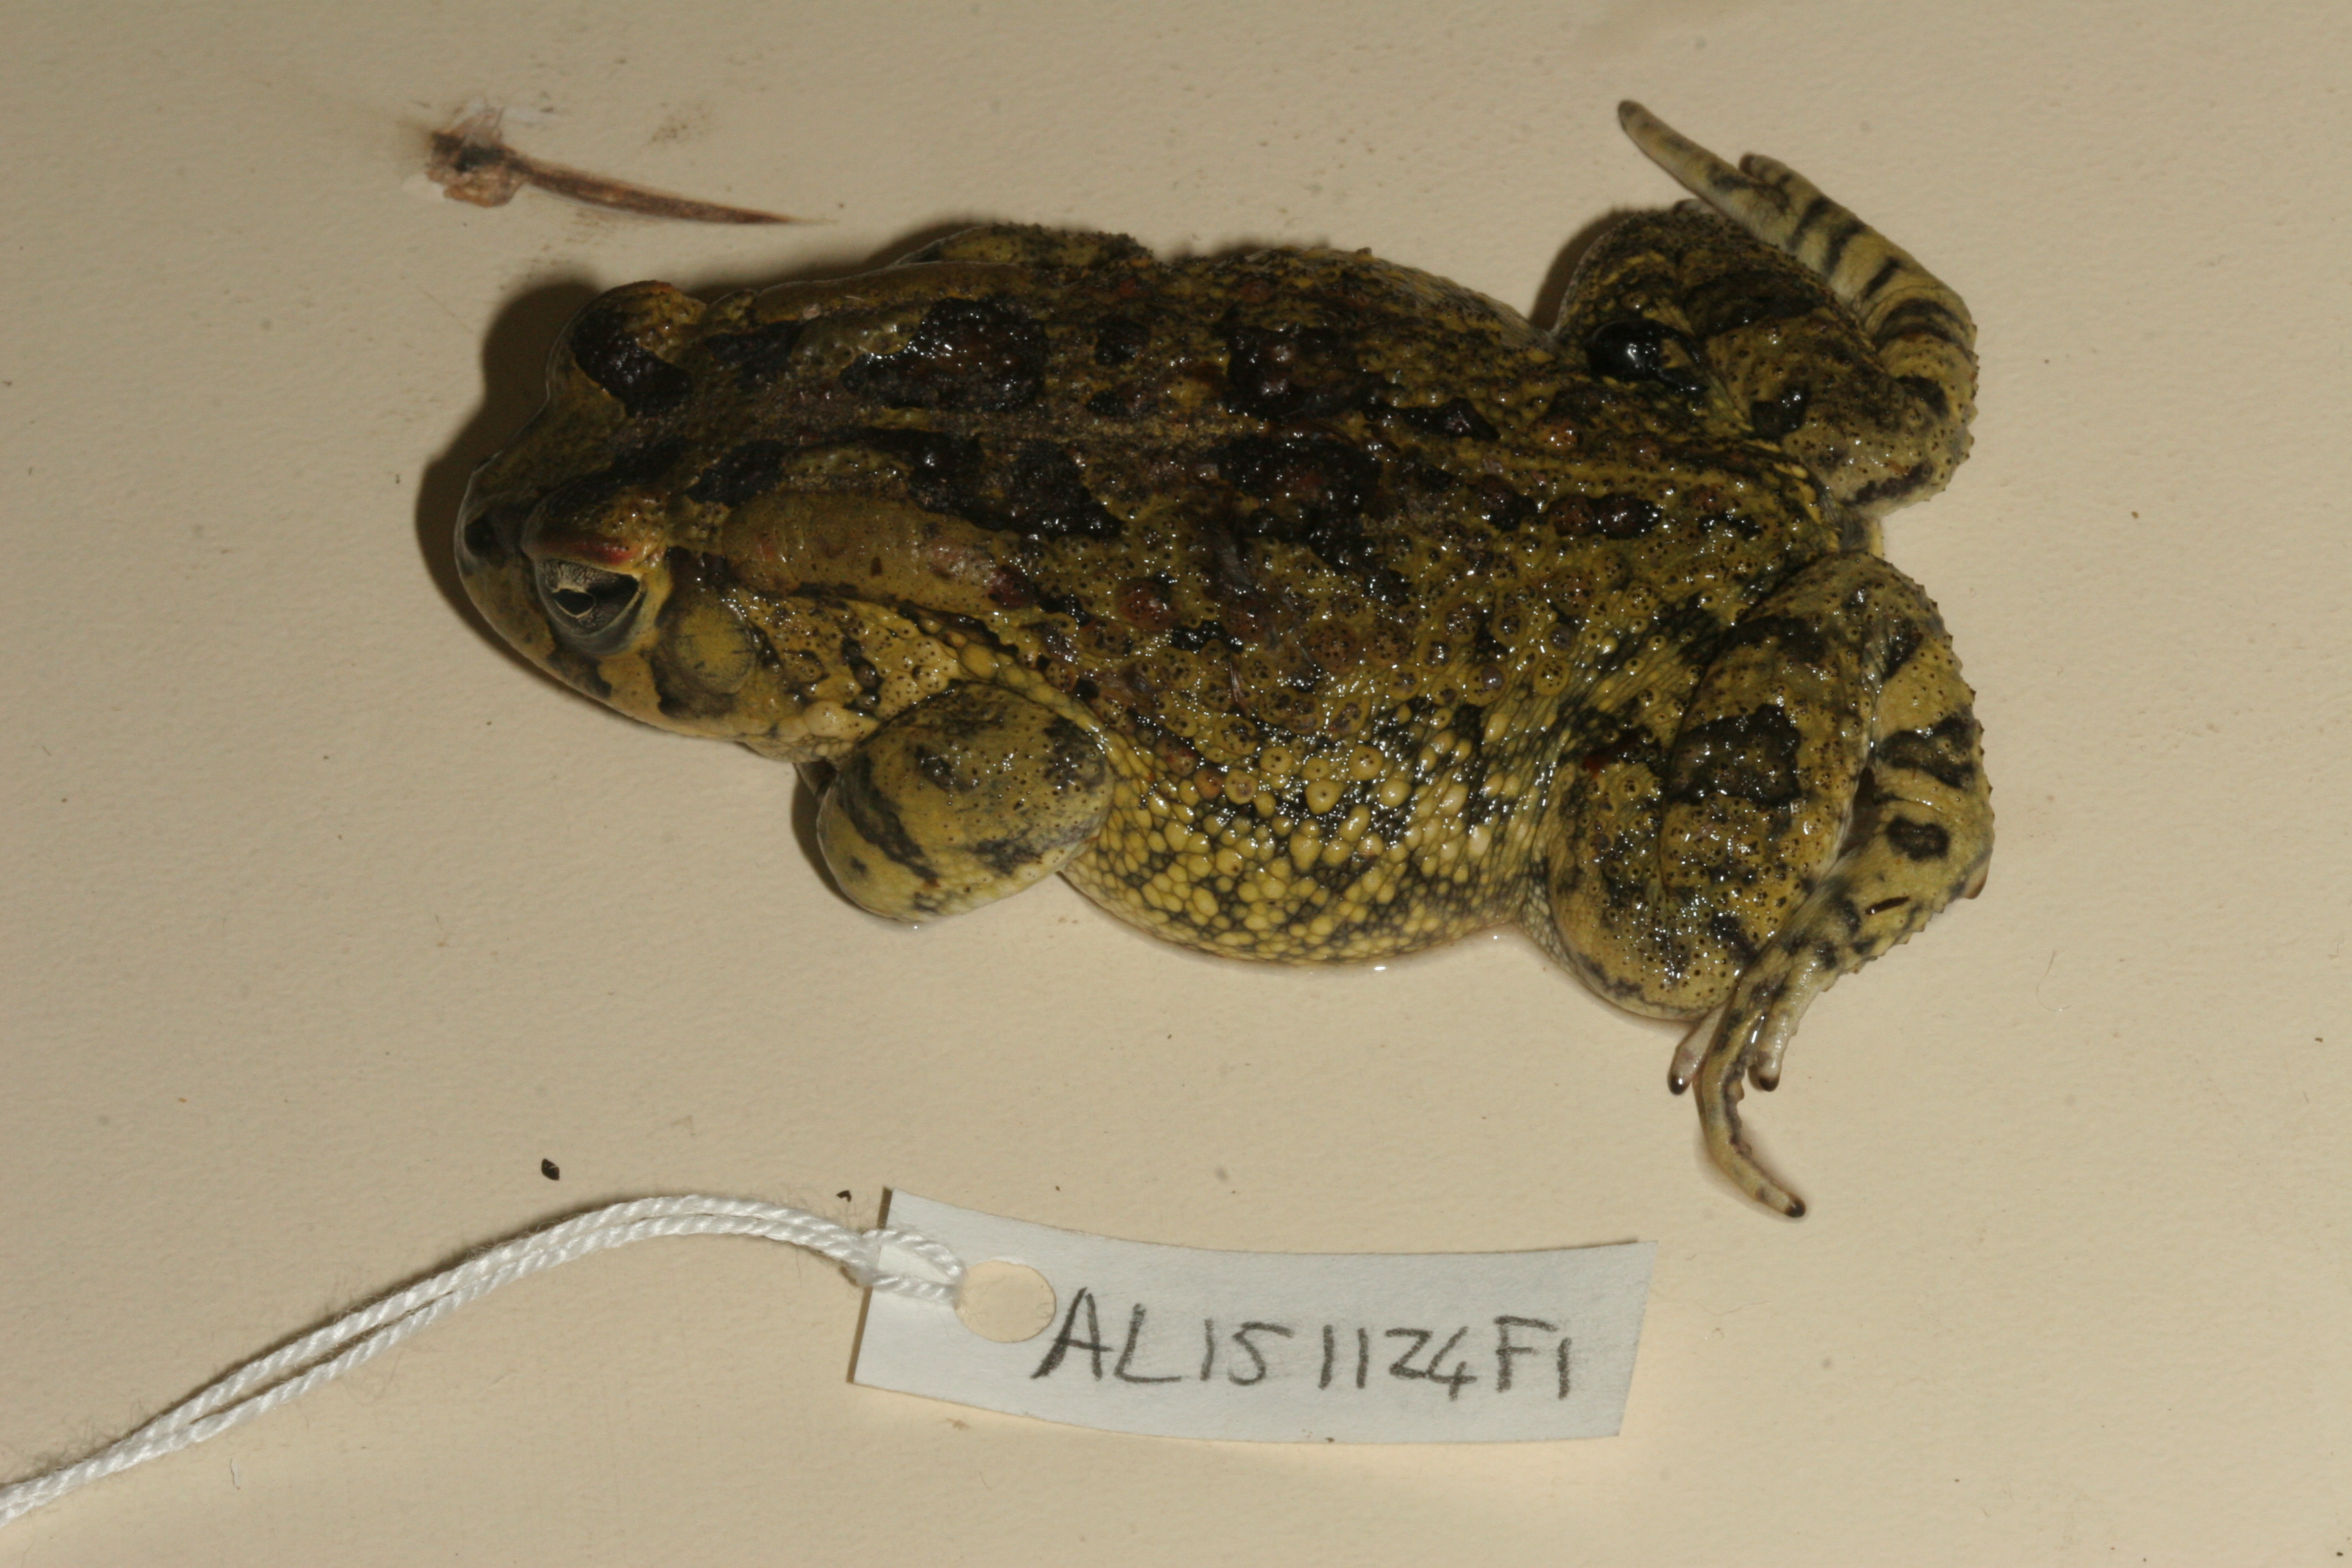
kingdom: Animalia
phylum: Chordata
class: Amphibia
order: Anura
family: Bufonidae
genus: Sclerophrys
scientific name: Sclerophrys garmani
